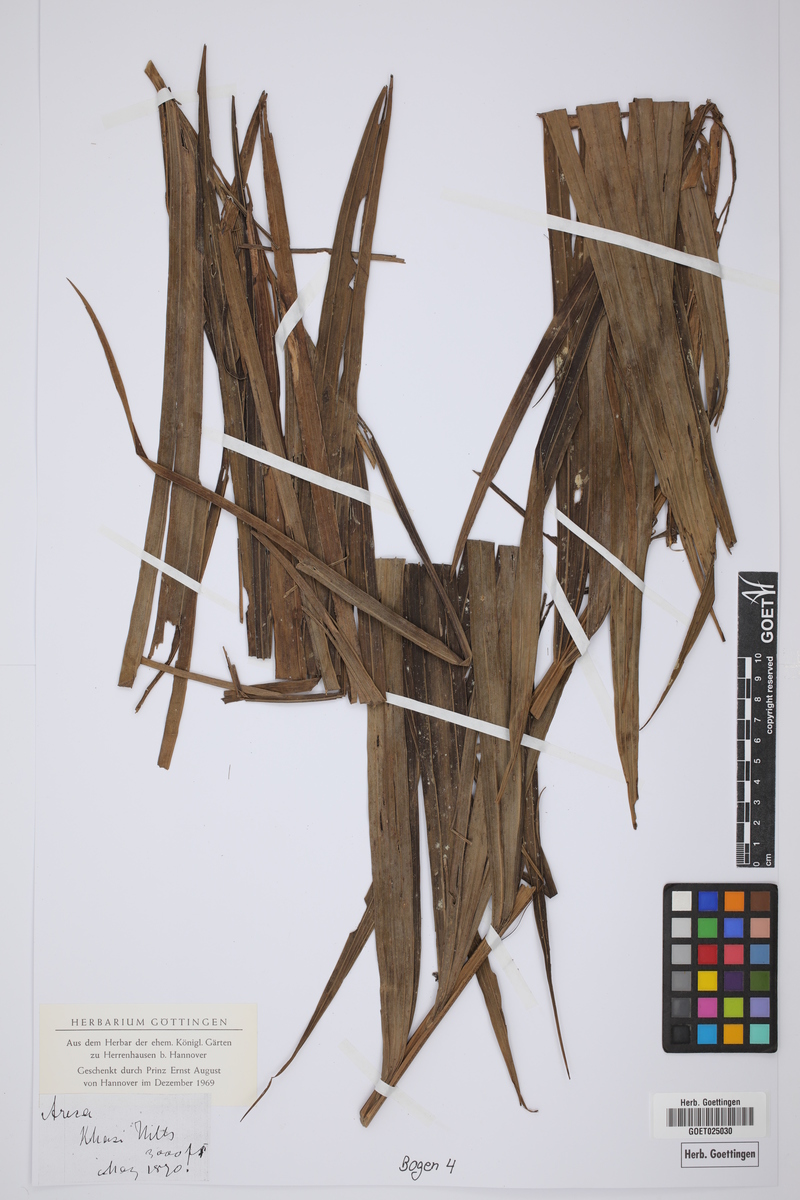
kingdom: Plantae
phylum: Tracheophyta
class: Liliopsida
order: Arecales
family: Arecaceae
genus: Areca
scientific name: Areca
